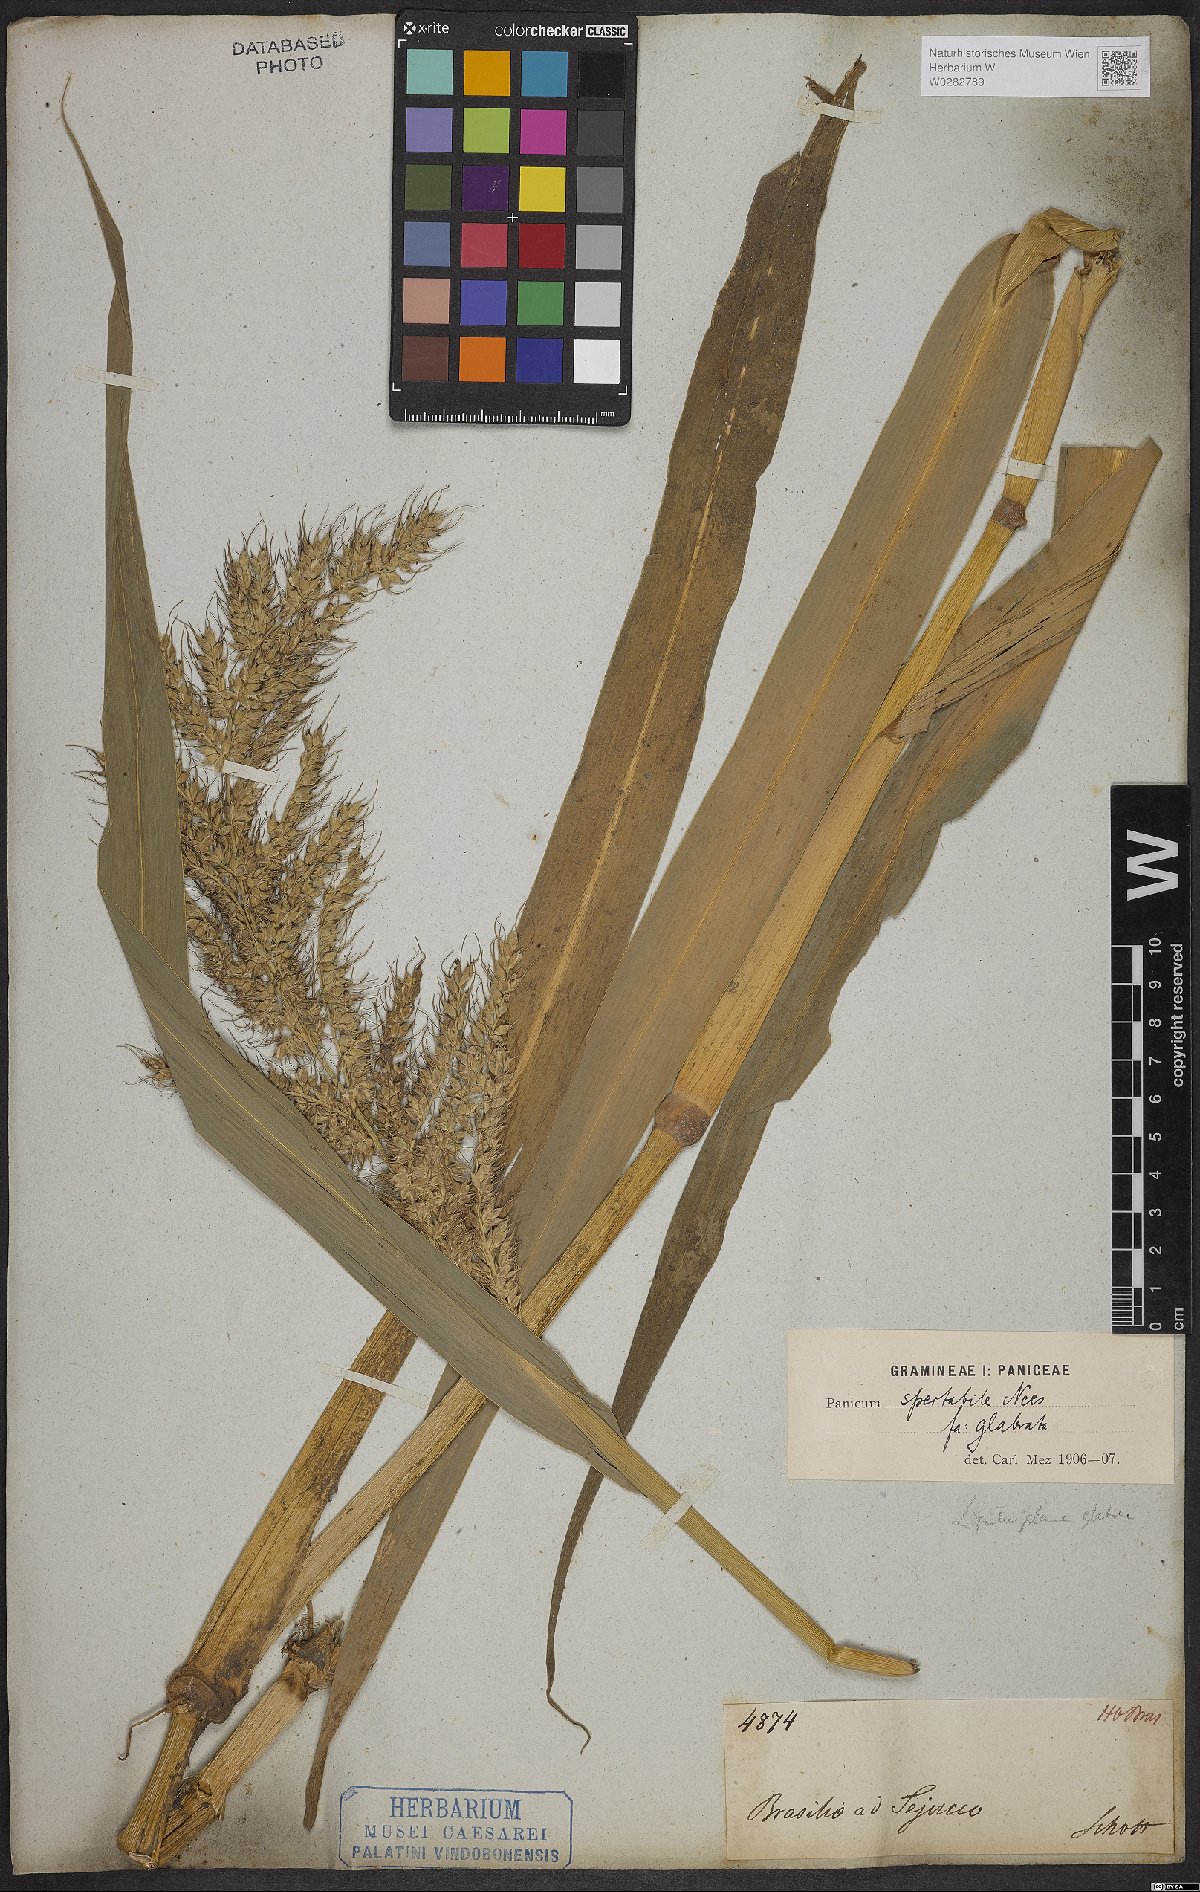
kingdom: Plantae
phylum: Tracheophyta
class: Liliopsida
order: Poales
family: Poaceae
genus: Echinochloa
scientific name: Echinochloa polystachya
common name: Creeping river grass
